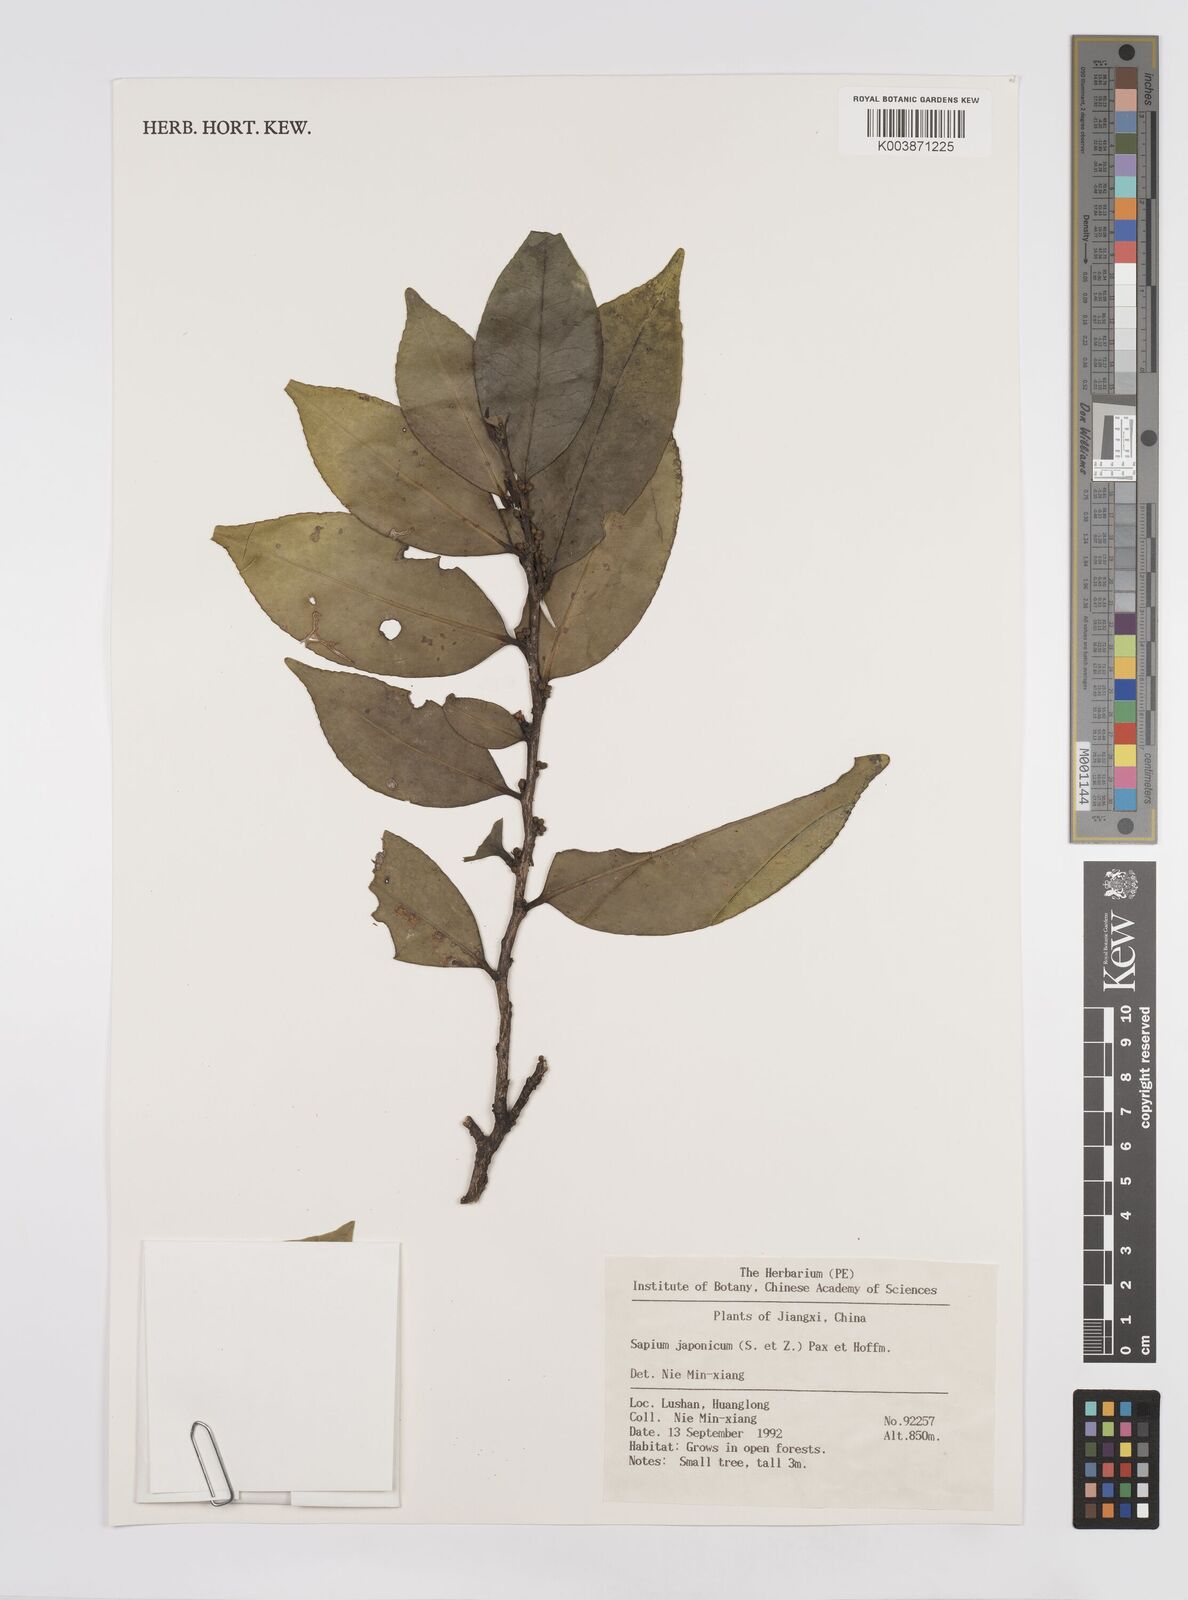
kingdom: Plantae
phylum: Tracheophyta
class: Magnoliopsida
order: Malpighiales
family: Euphorbiaceae
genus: Neoshirakia
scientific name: Neoshirakia japonica
